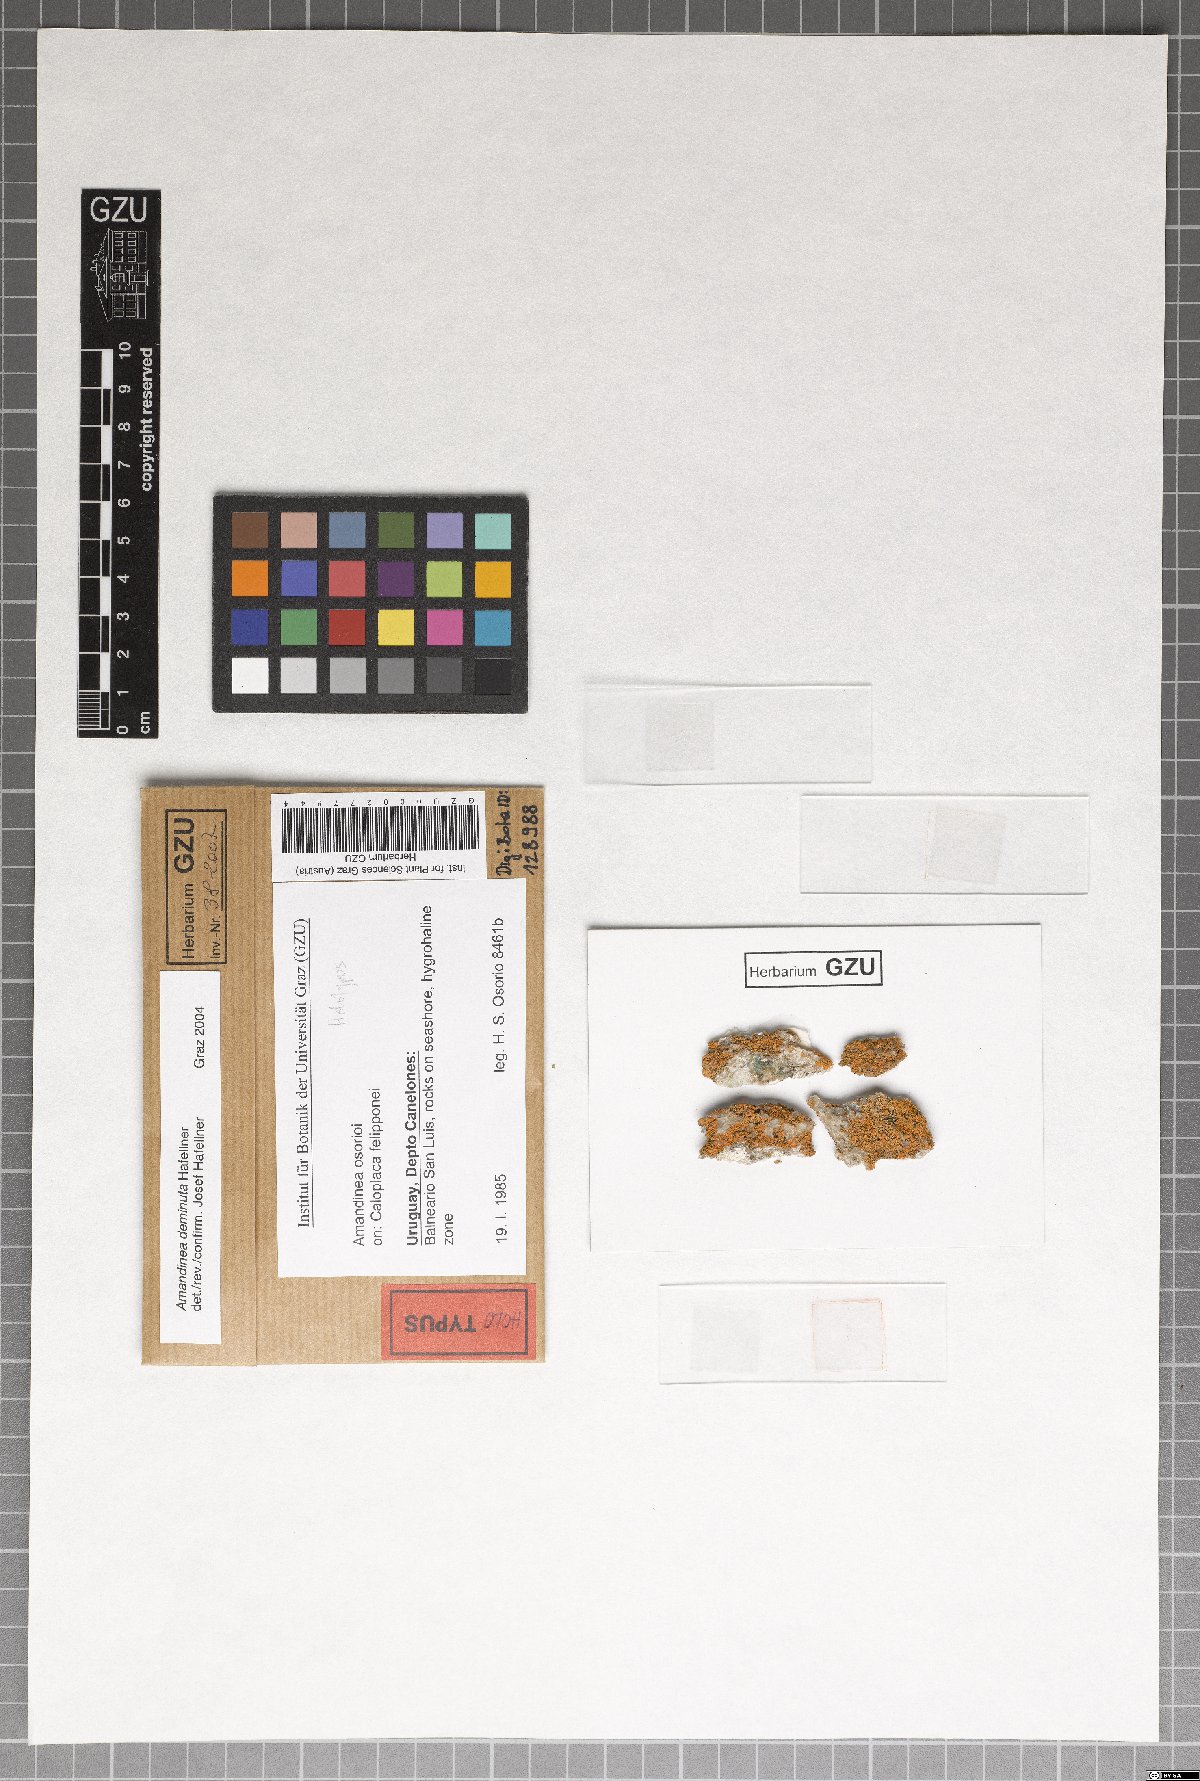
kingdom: Fungi
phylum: Ascomycota
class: Lecanoromycetes
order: Caliciales
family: Caliciaceae
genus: Amandinea
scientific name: Amandinea deminuta
